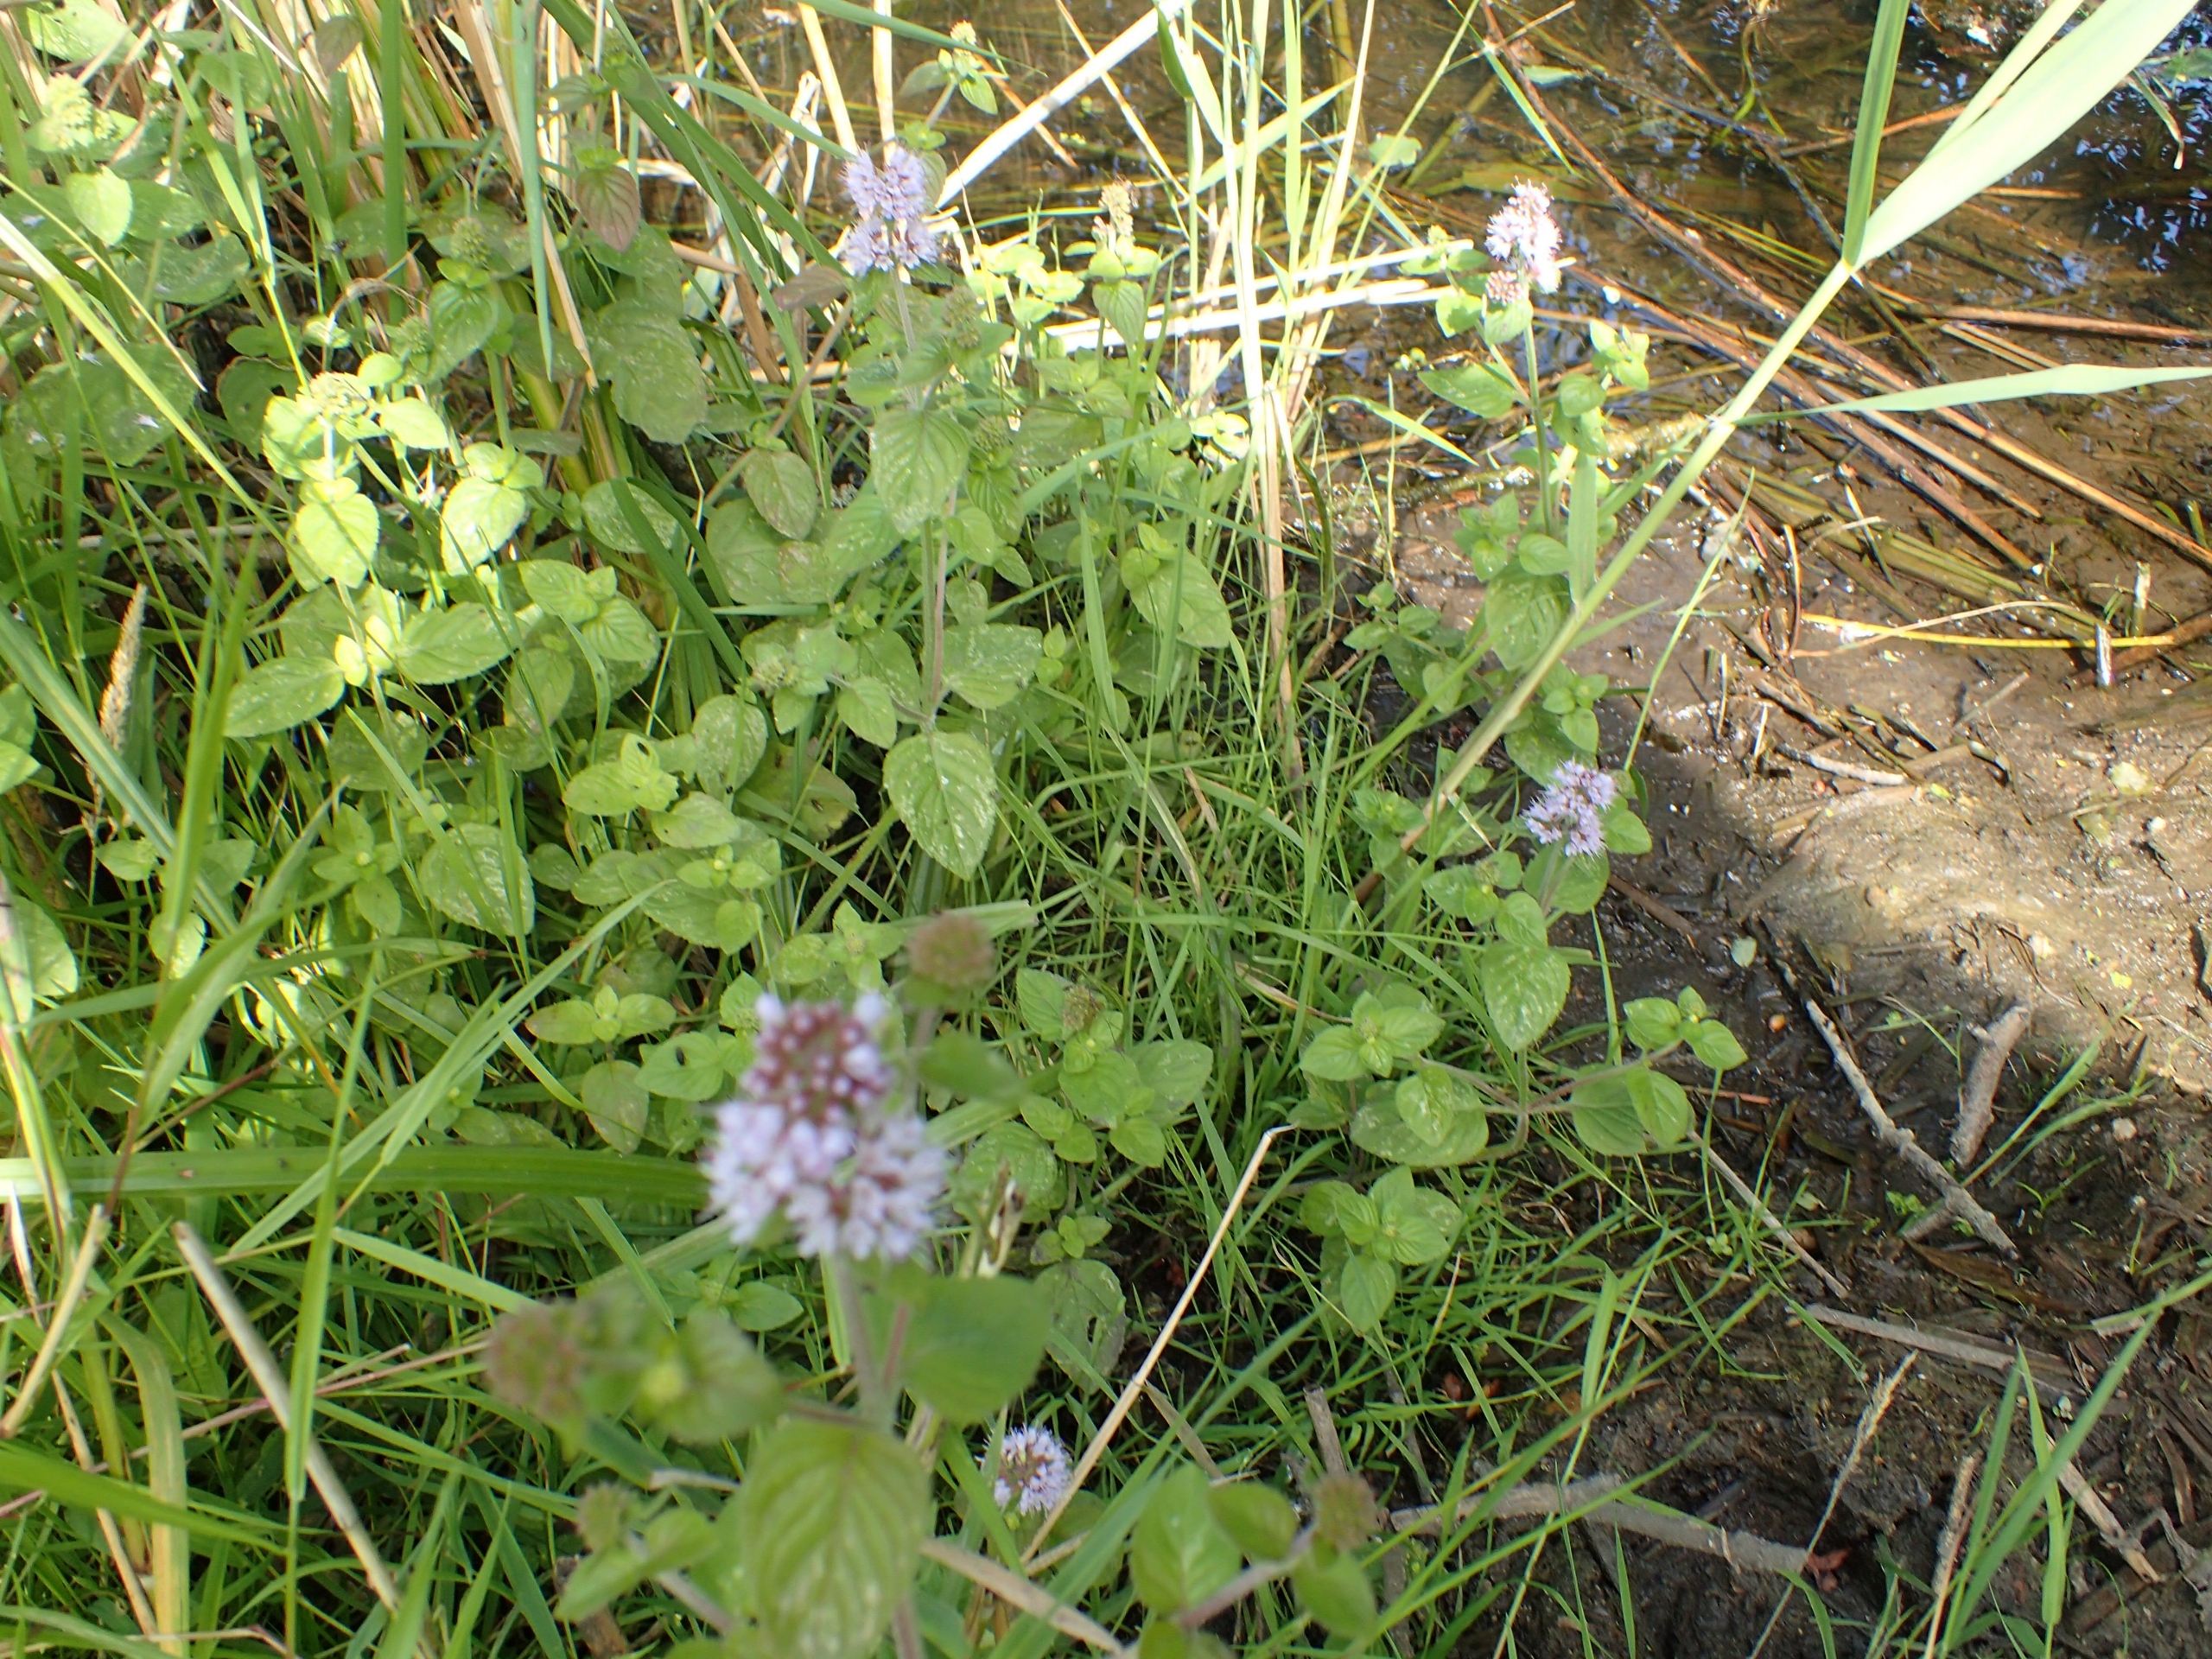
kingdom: Plantae
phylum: Tracheophyta
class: Magnoliopsida
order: Lamiales
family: Lamiaceae
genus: Mentha
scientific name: Mentha aquatica
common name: Vand-mynte
